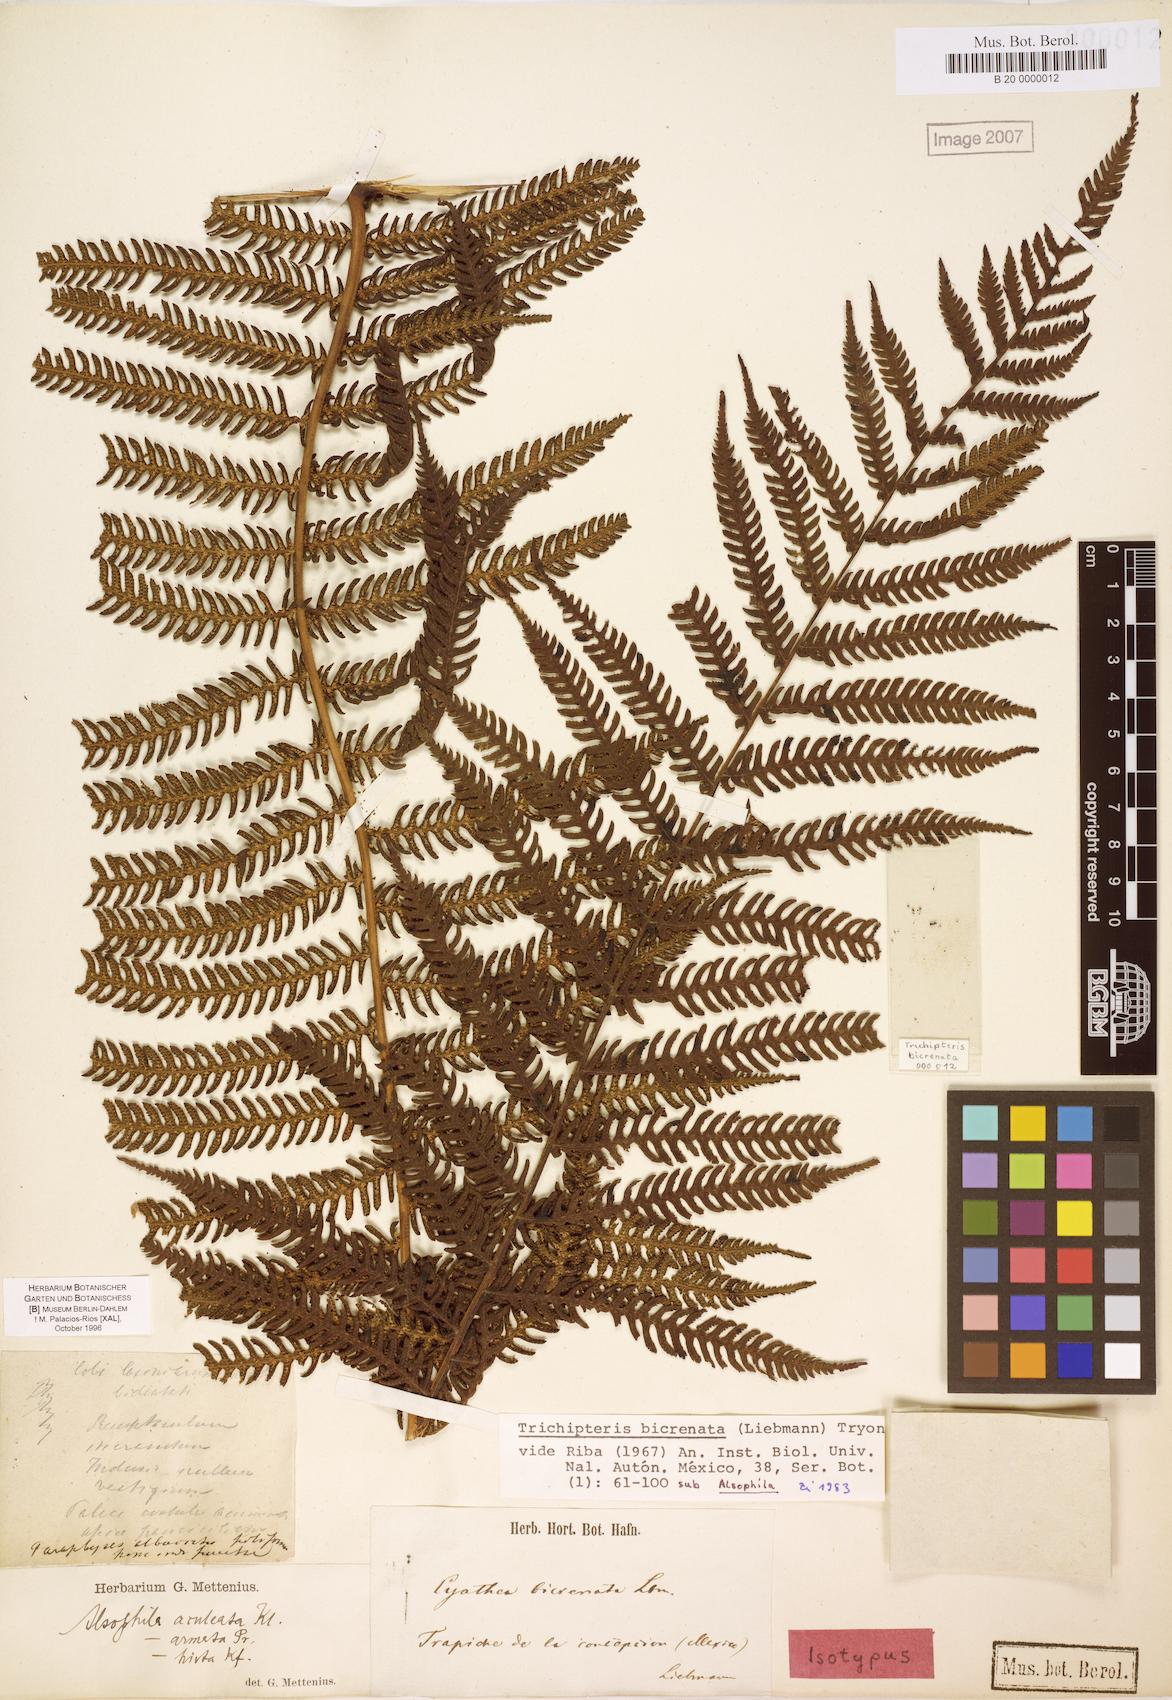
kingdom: Plantae
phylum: Tracheophyta
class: Polypodiopsida
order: Cyatheales
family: Cyatheaceae
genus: Cyathea
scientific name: Cyathea bicrenata
